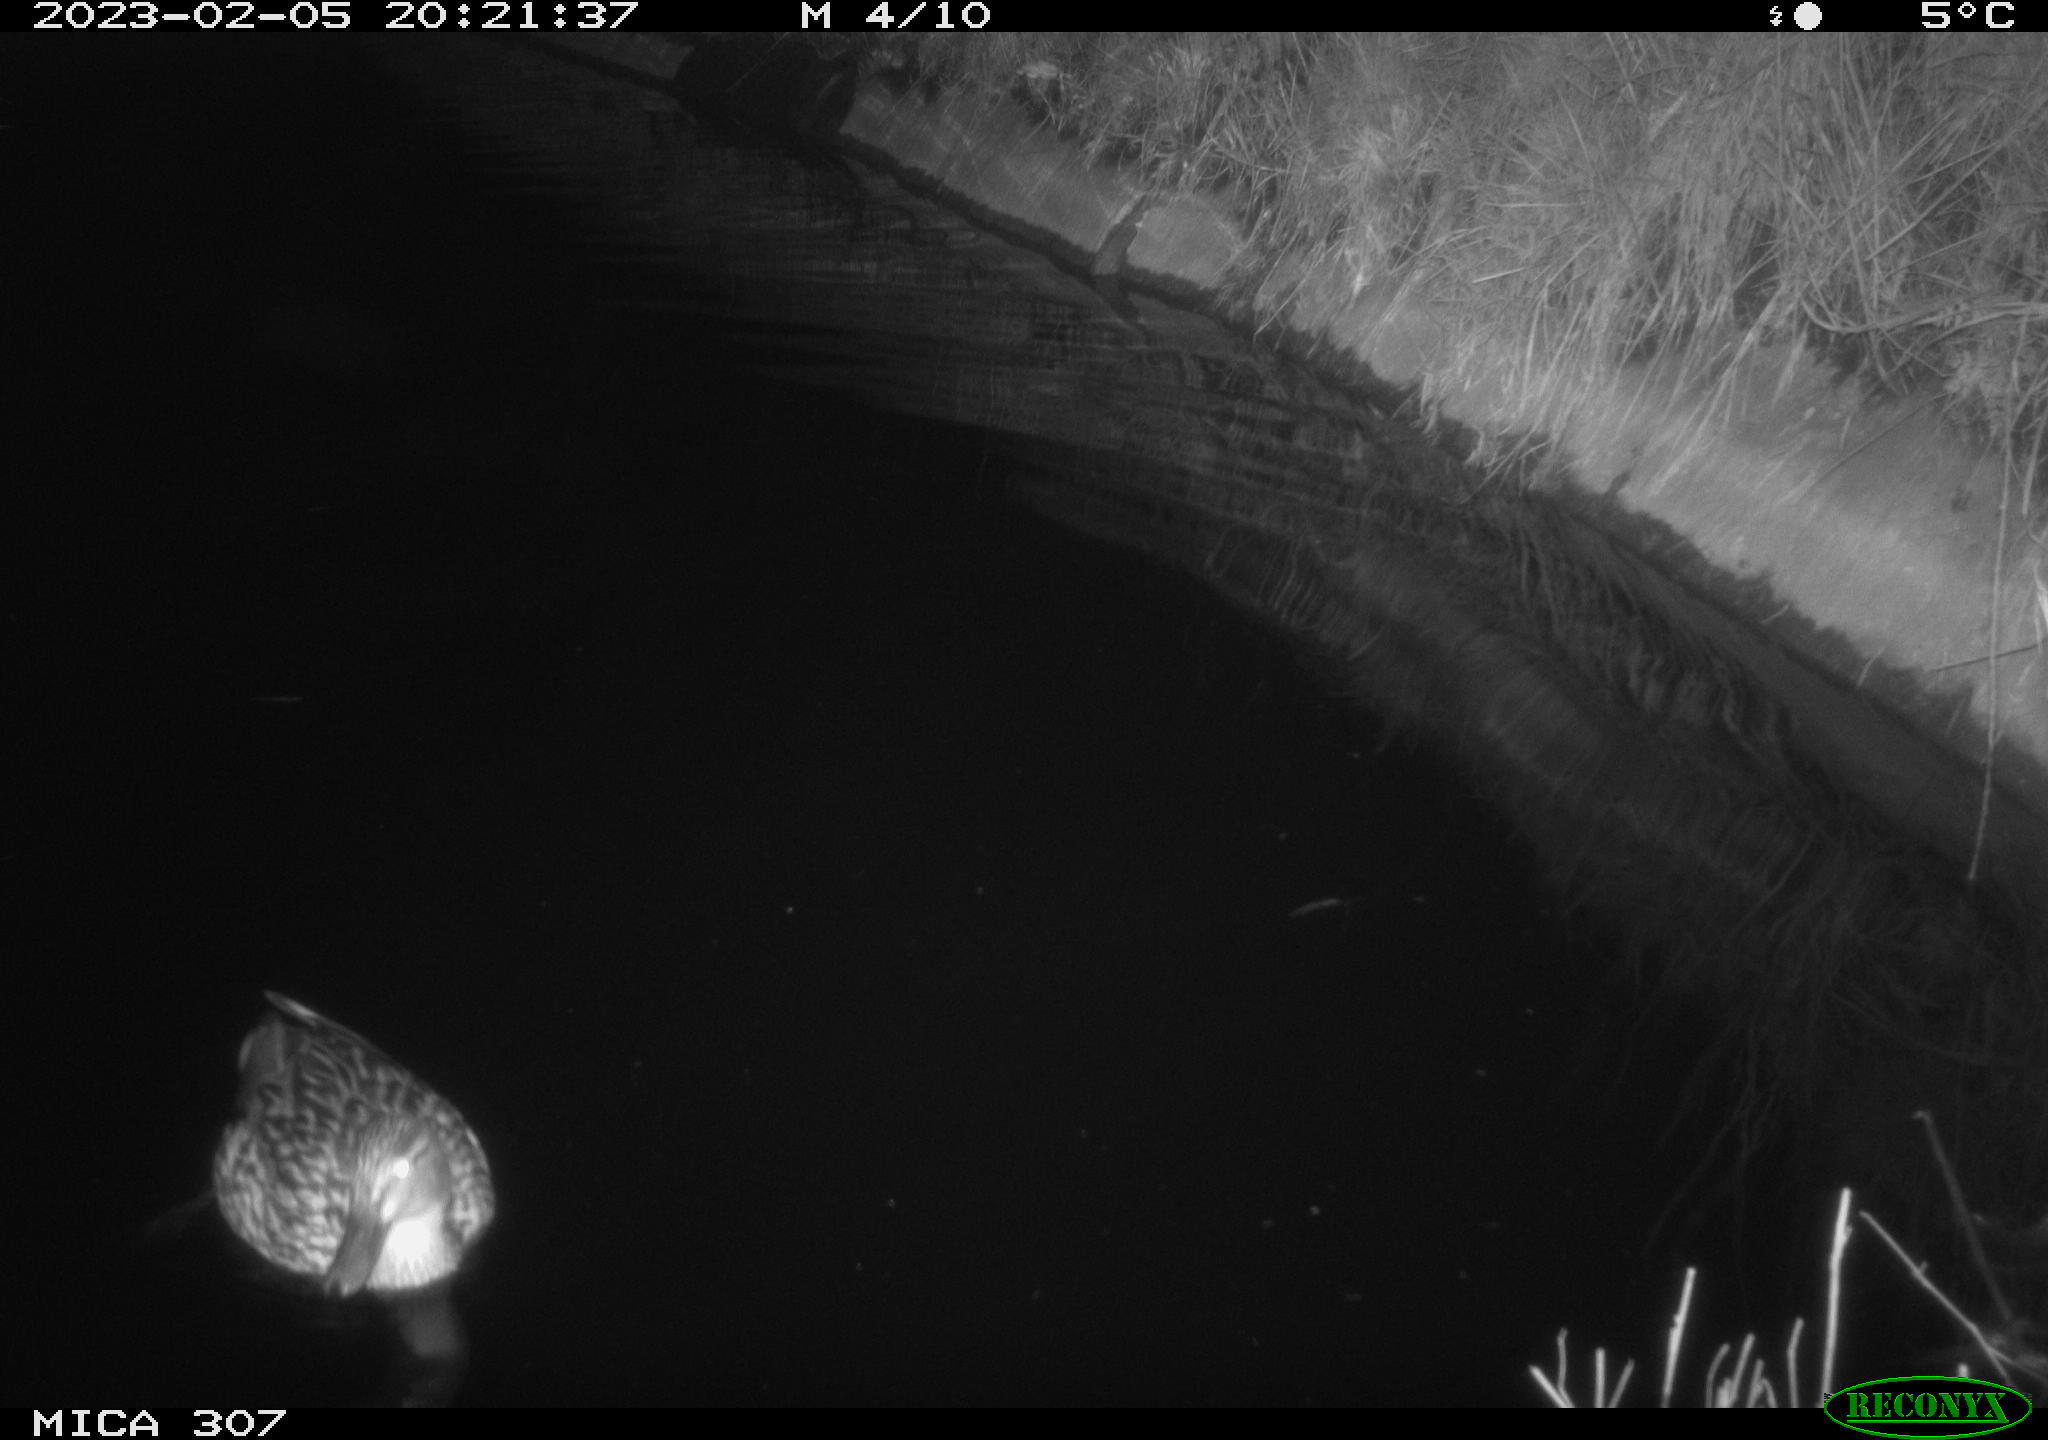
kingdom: Animalia
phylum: Chordata
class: Aves
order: Anseriformes
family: Anatidae
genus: Anas
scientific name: Anas
